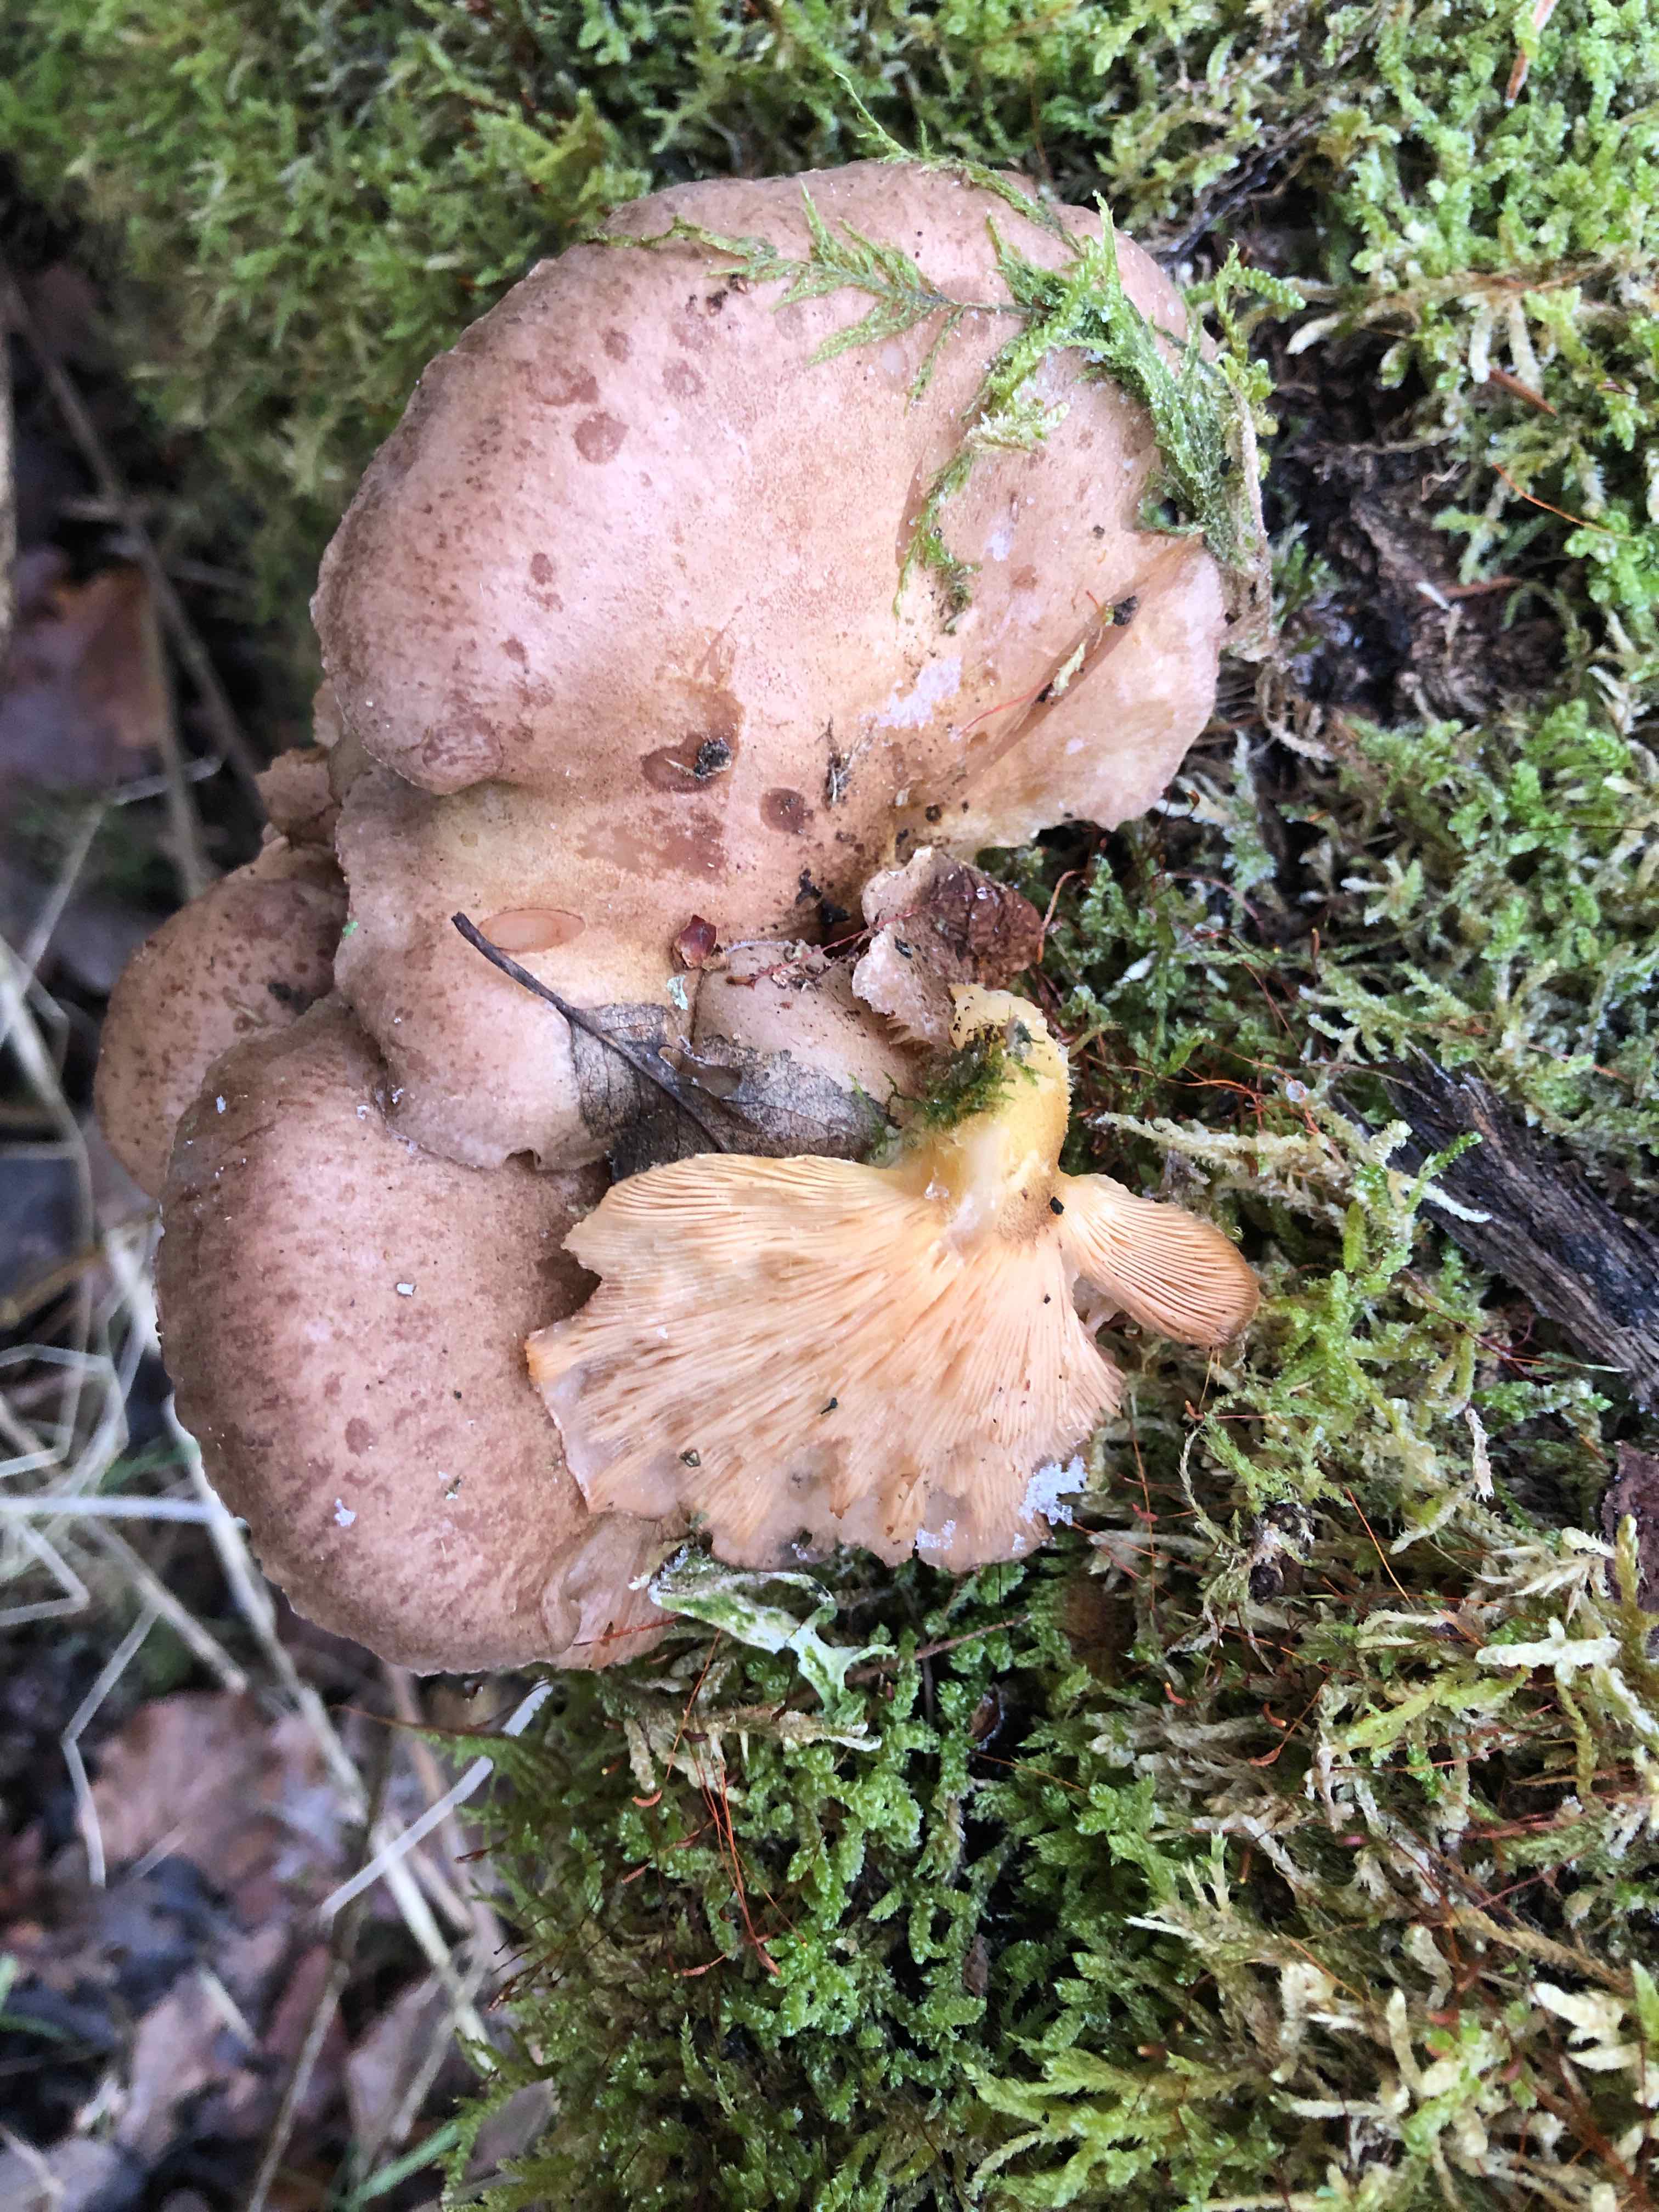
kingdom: Fungi
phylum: Basidiomycota
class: Agaricomycetes
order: Agaricales
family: Sarcomyxaceae
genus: Sarcomyxa
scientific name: Sarcomyxa serotina
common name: gummihat
